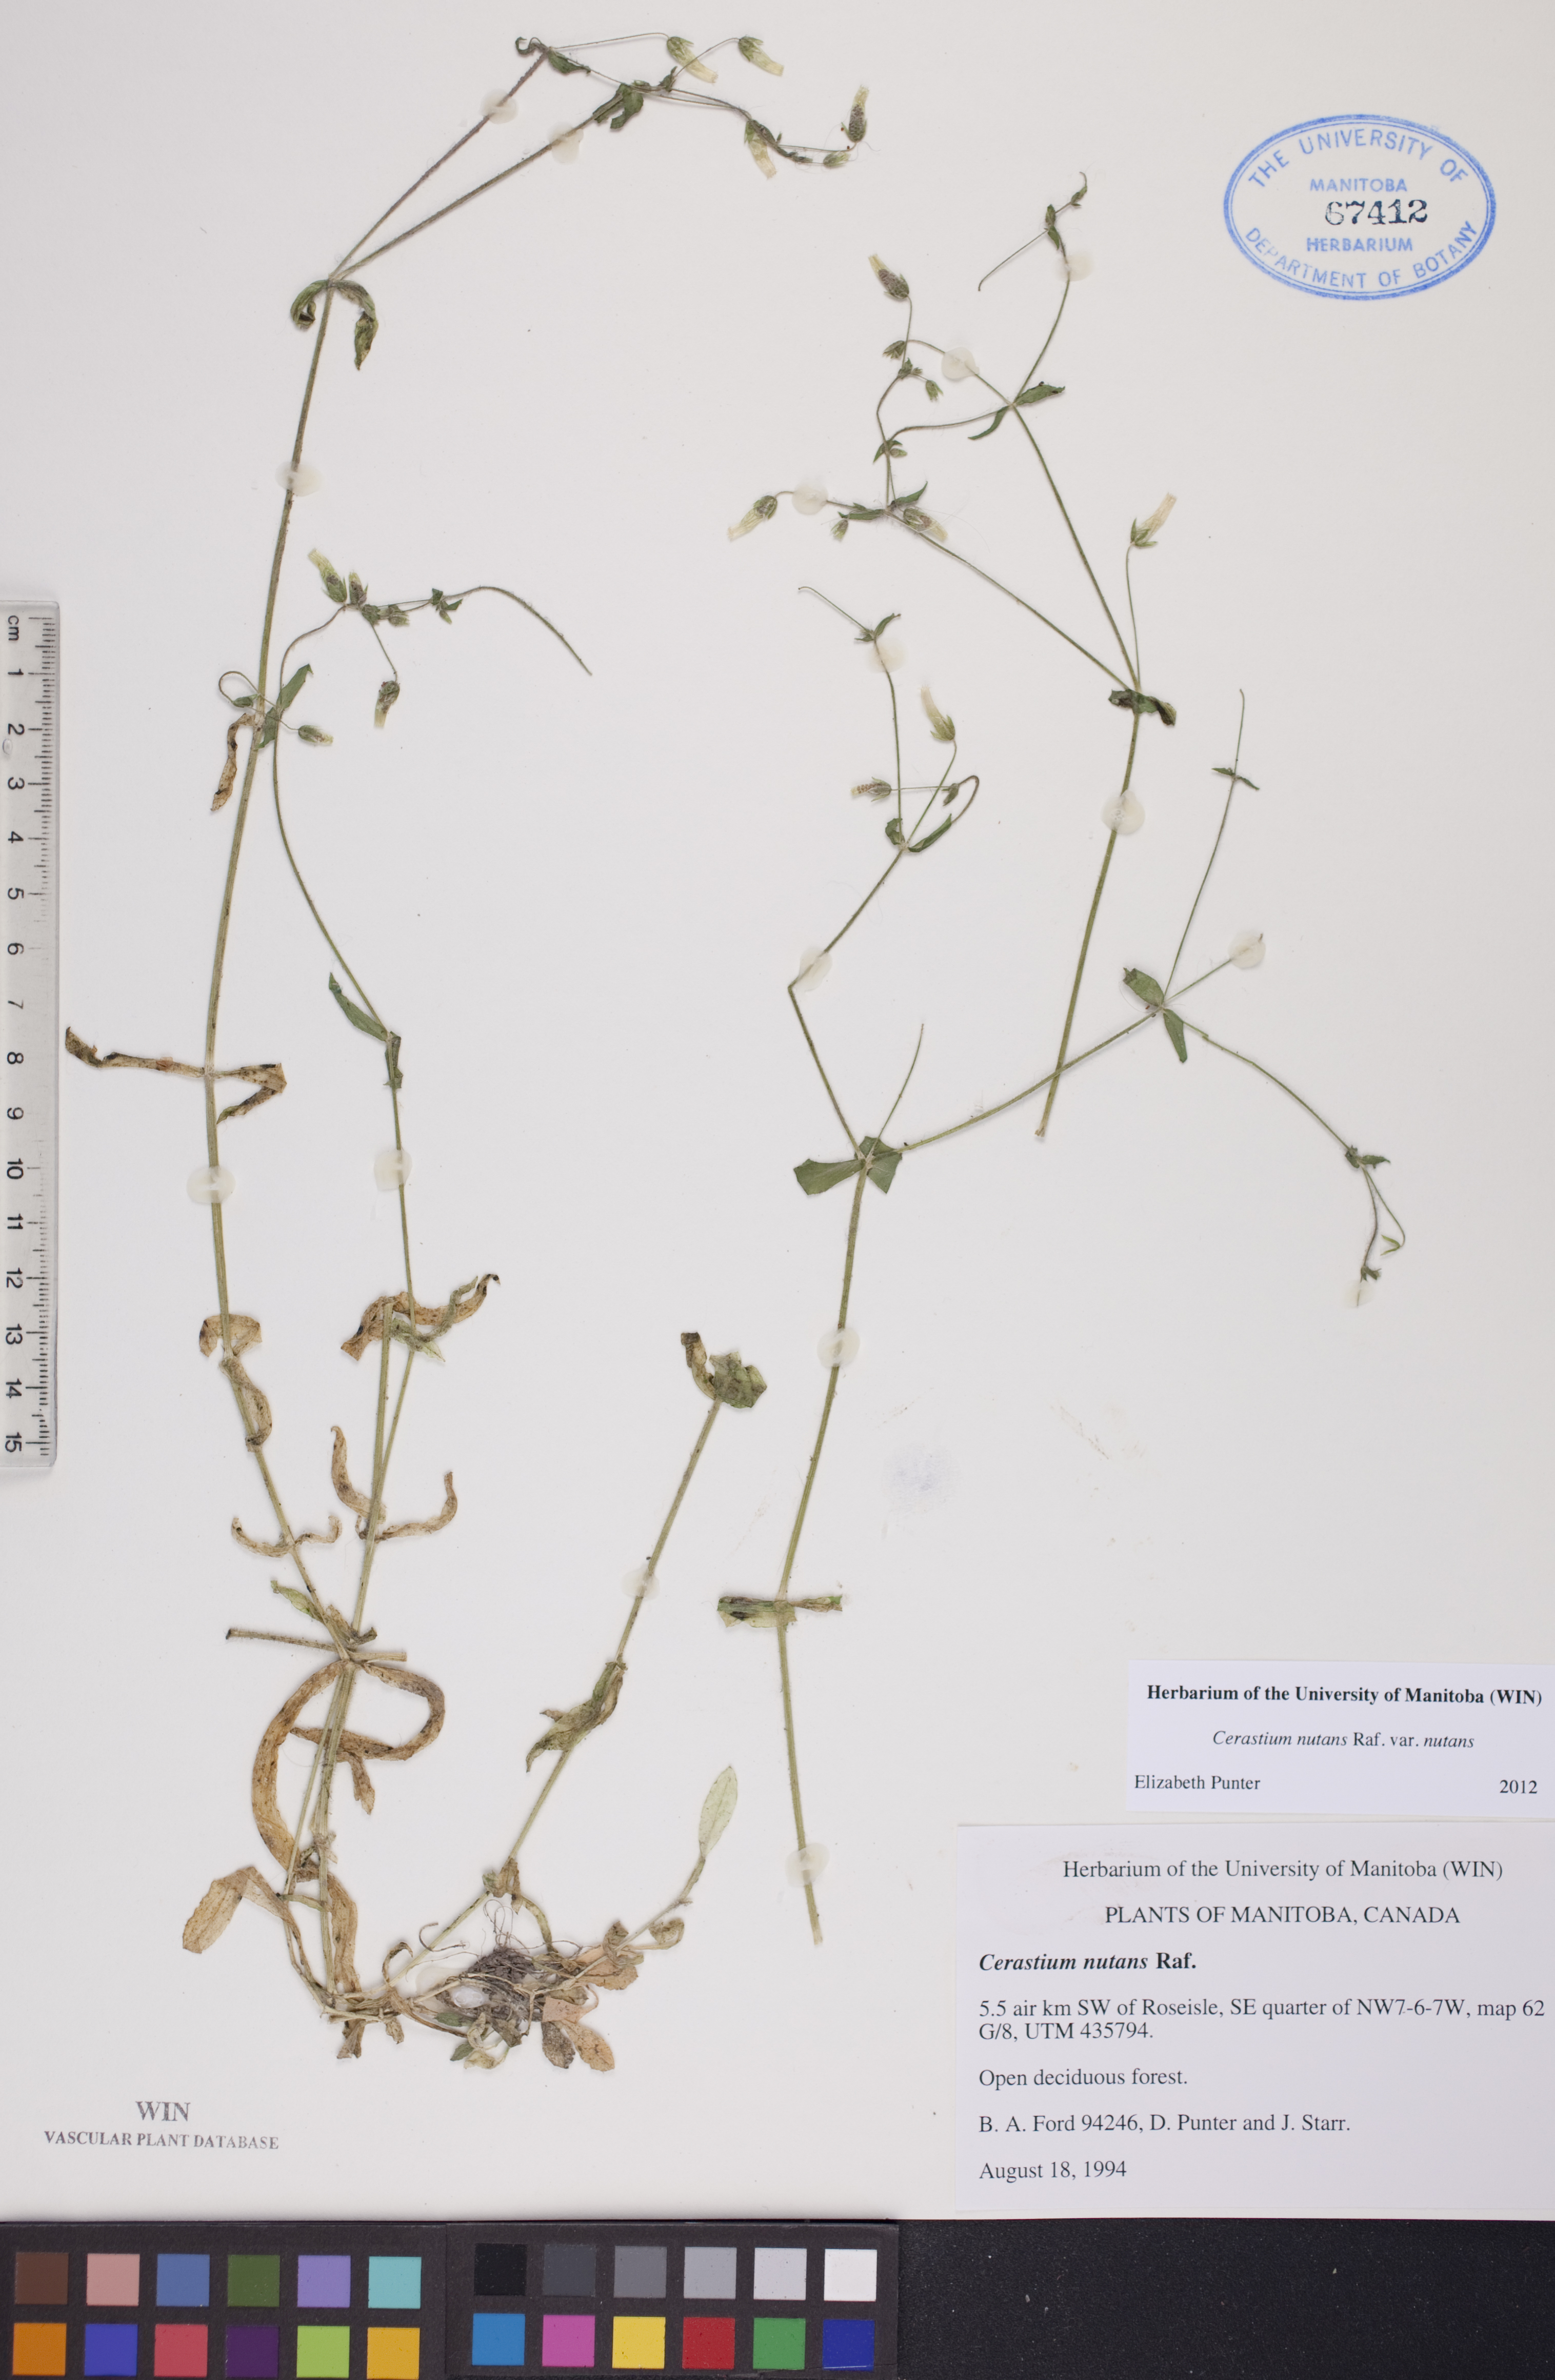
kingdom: Plantae
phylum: Tracheophyta
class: Magnoliopsida
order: Caryophyllales
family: Caryophyllaceae
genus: Cerastium
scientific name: Cerastium nutans
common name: Long-stalked chickweed
